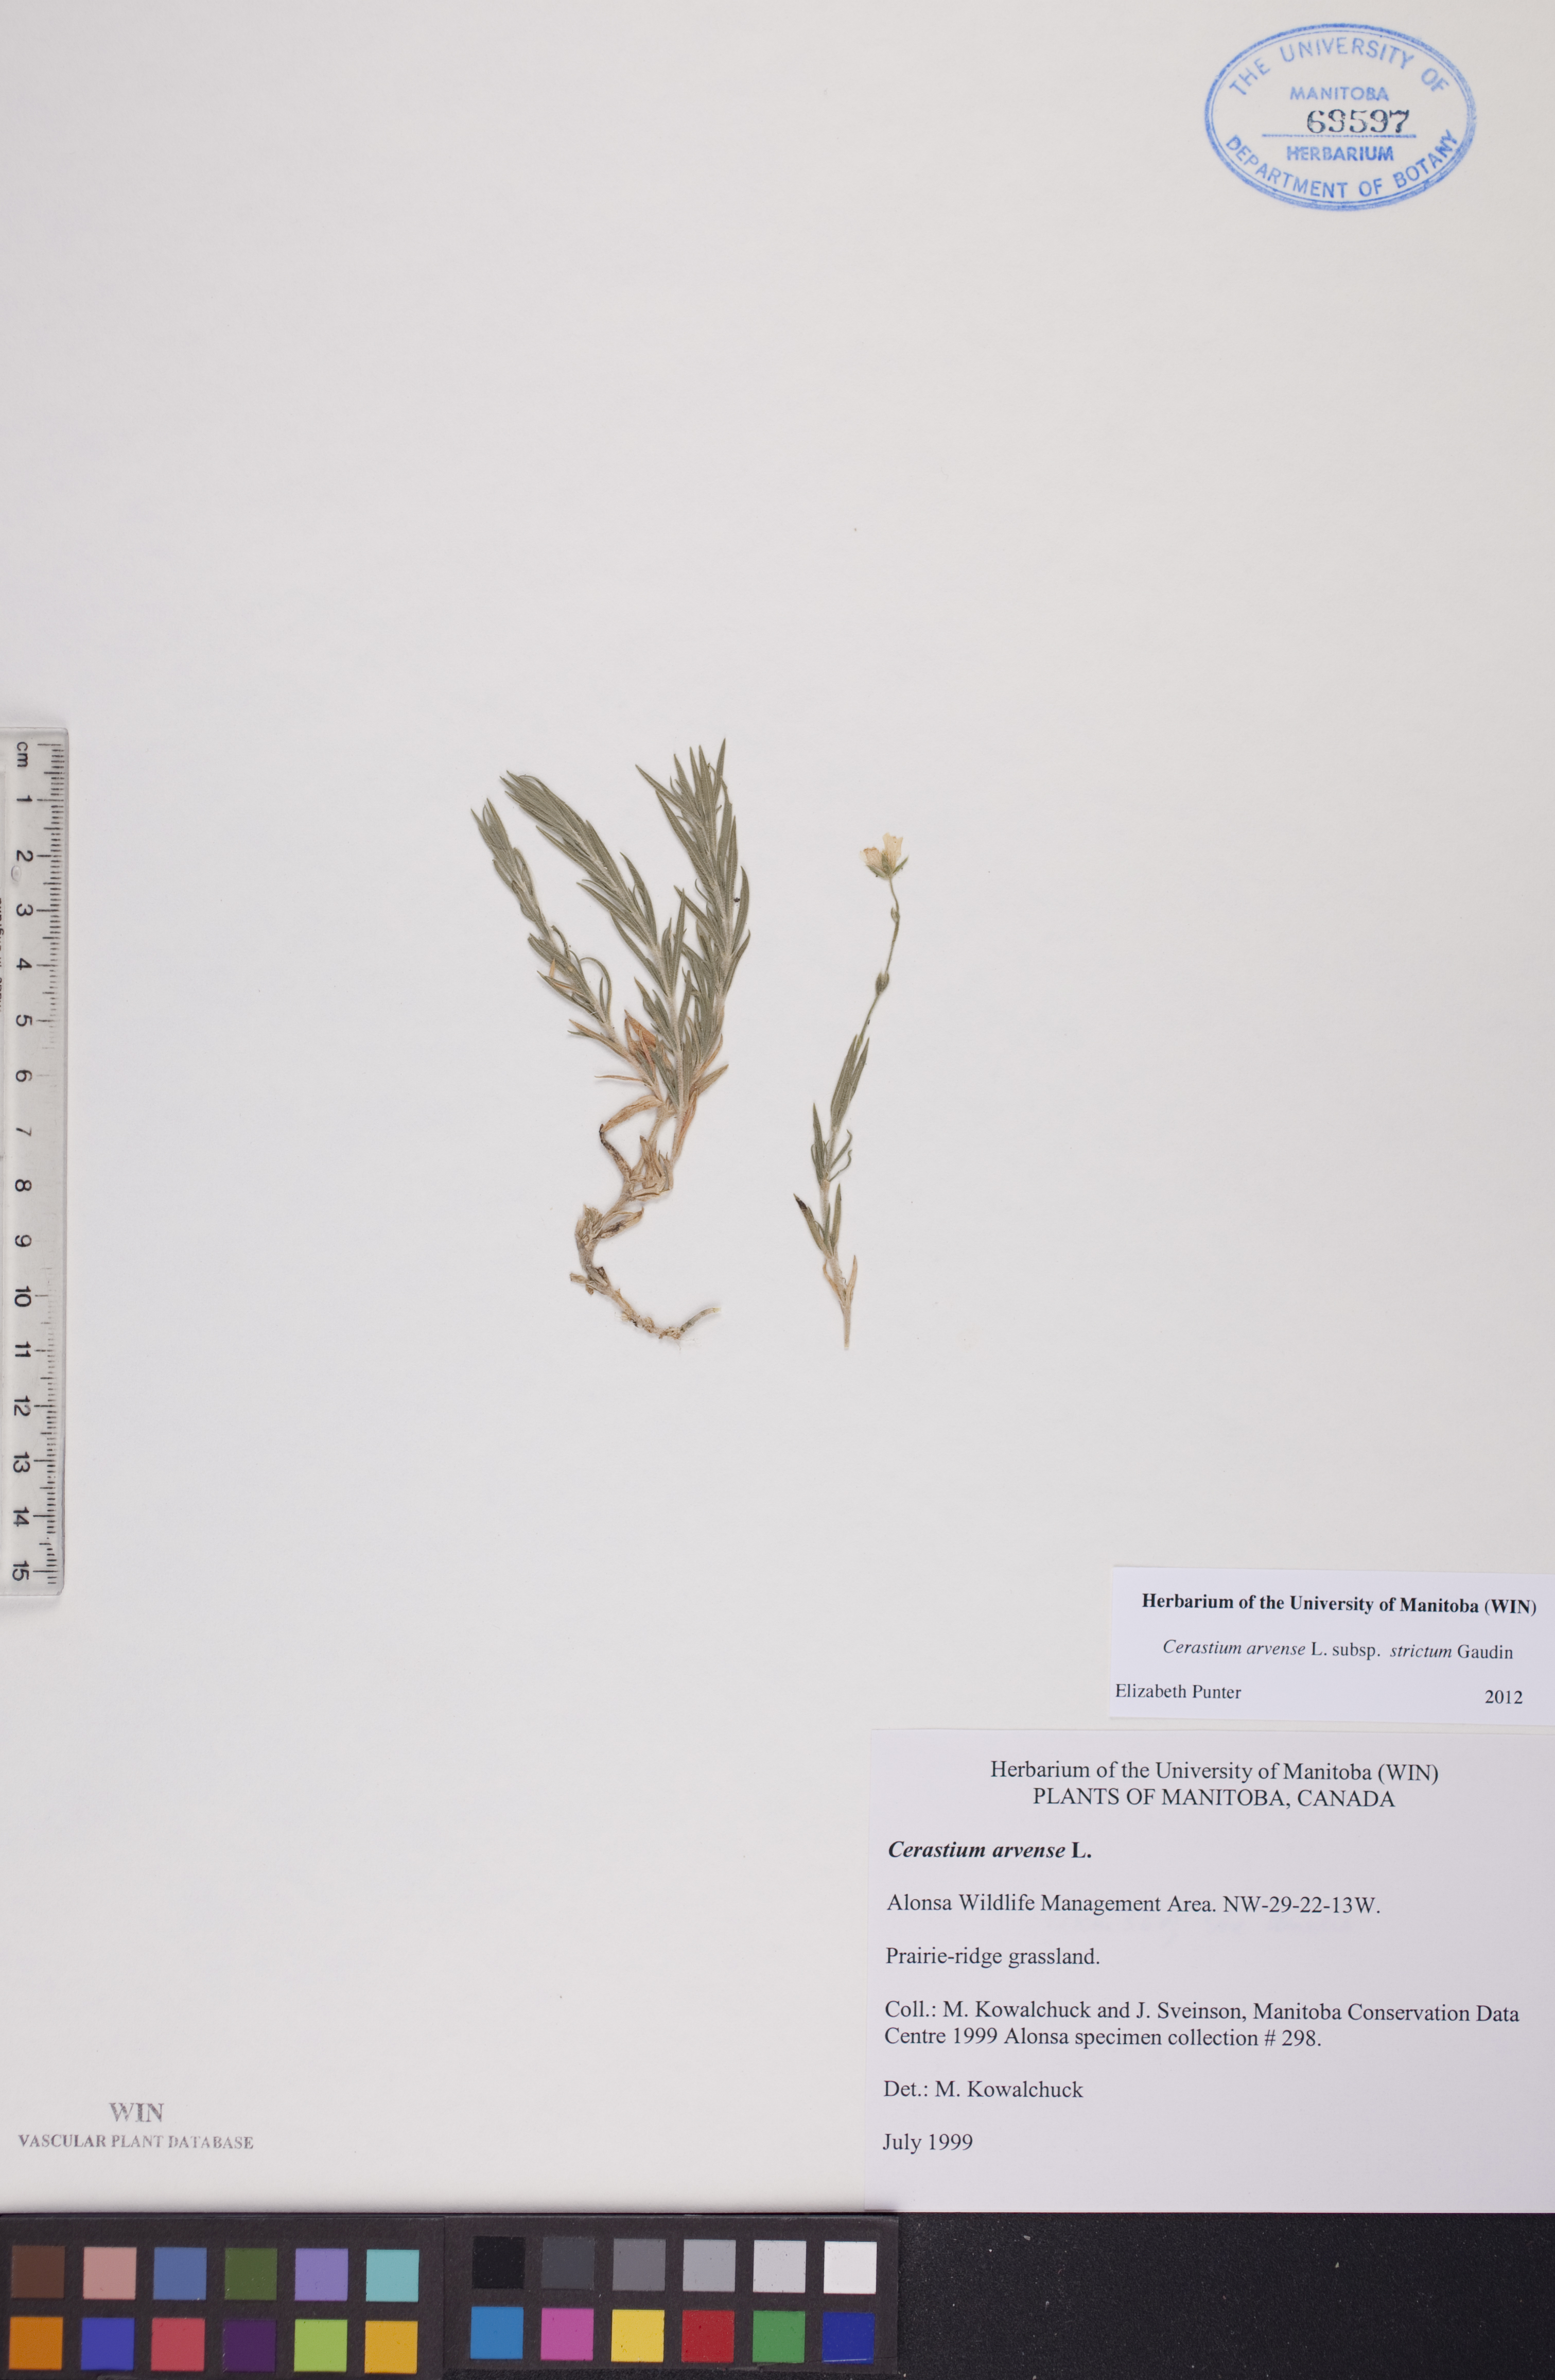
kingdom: Plantae
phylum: Tracheophyta
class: Magnoliopsida
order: Caryophyllales
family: Caryophyllaceae
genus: Cerastium
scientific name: Cerastium elongatum
